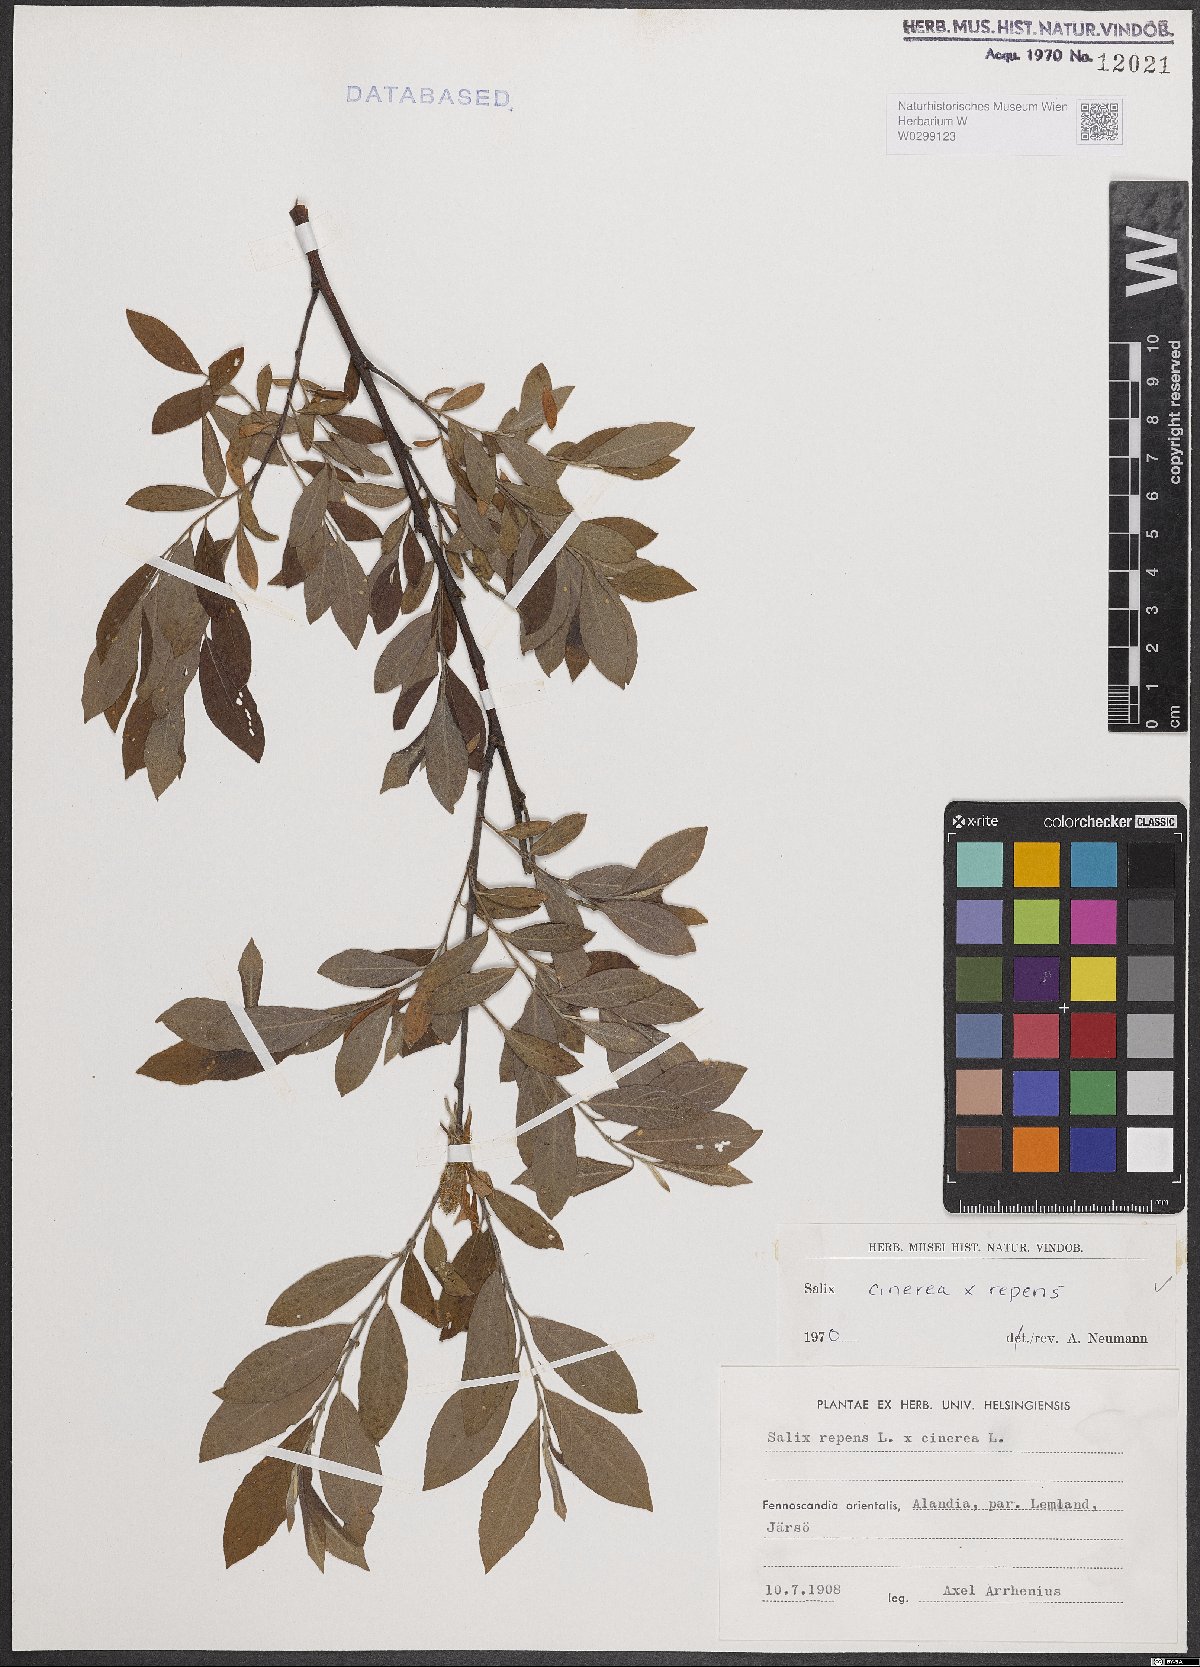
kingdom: Plantae
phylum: Tracheophyta
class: Magnoliopsida
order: Malpighiales
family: Salicaceae
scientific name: Salicaceae
